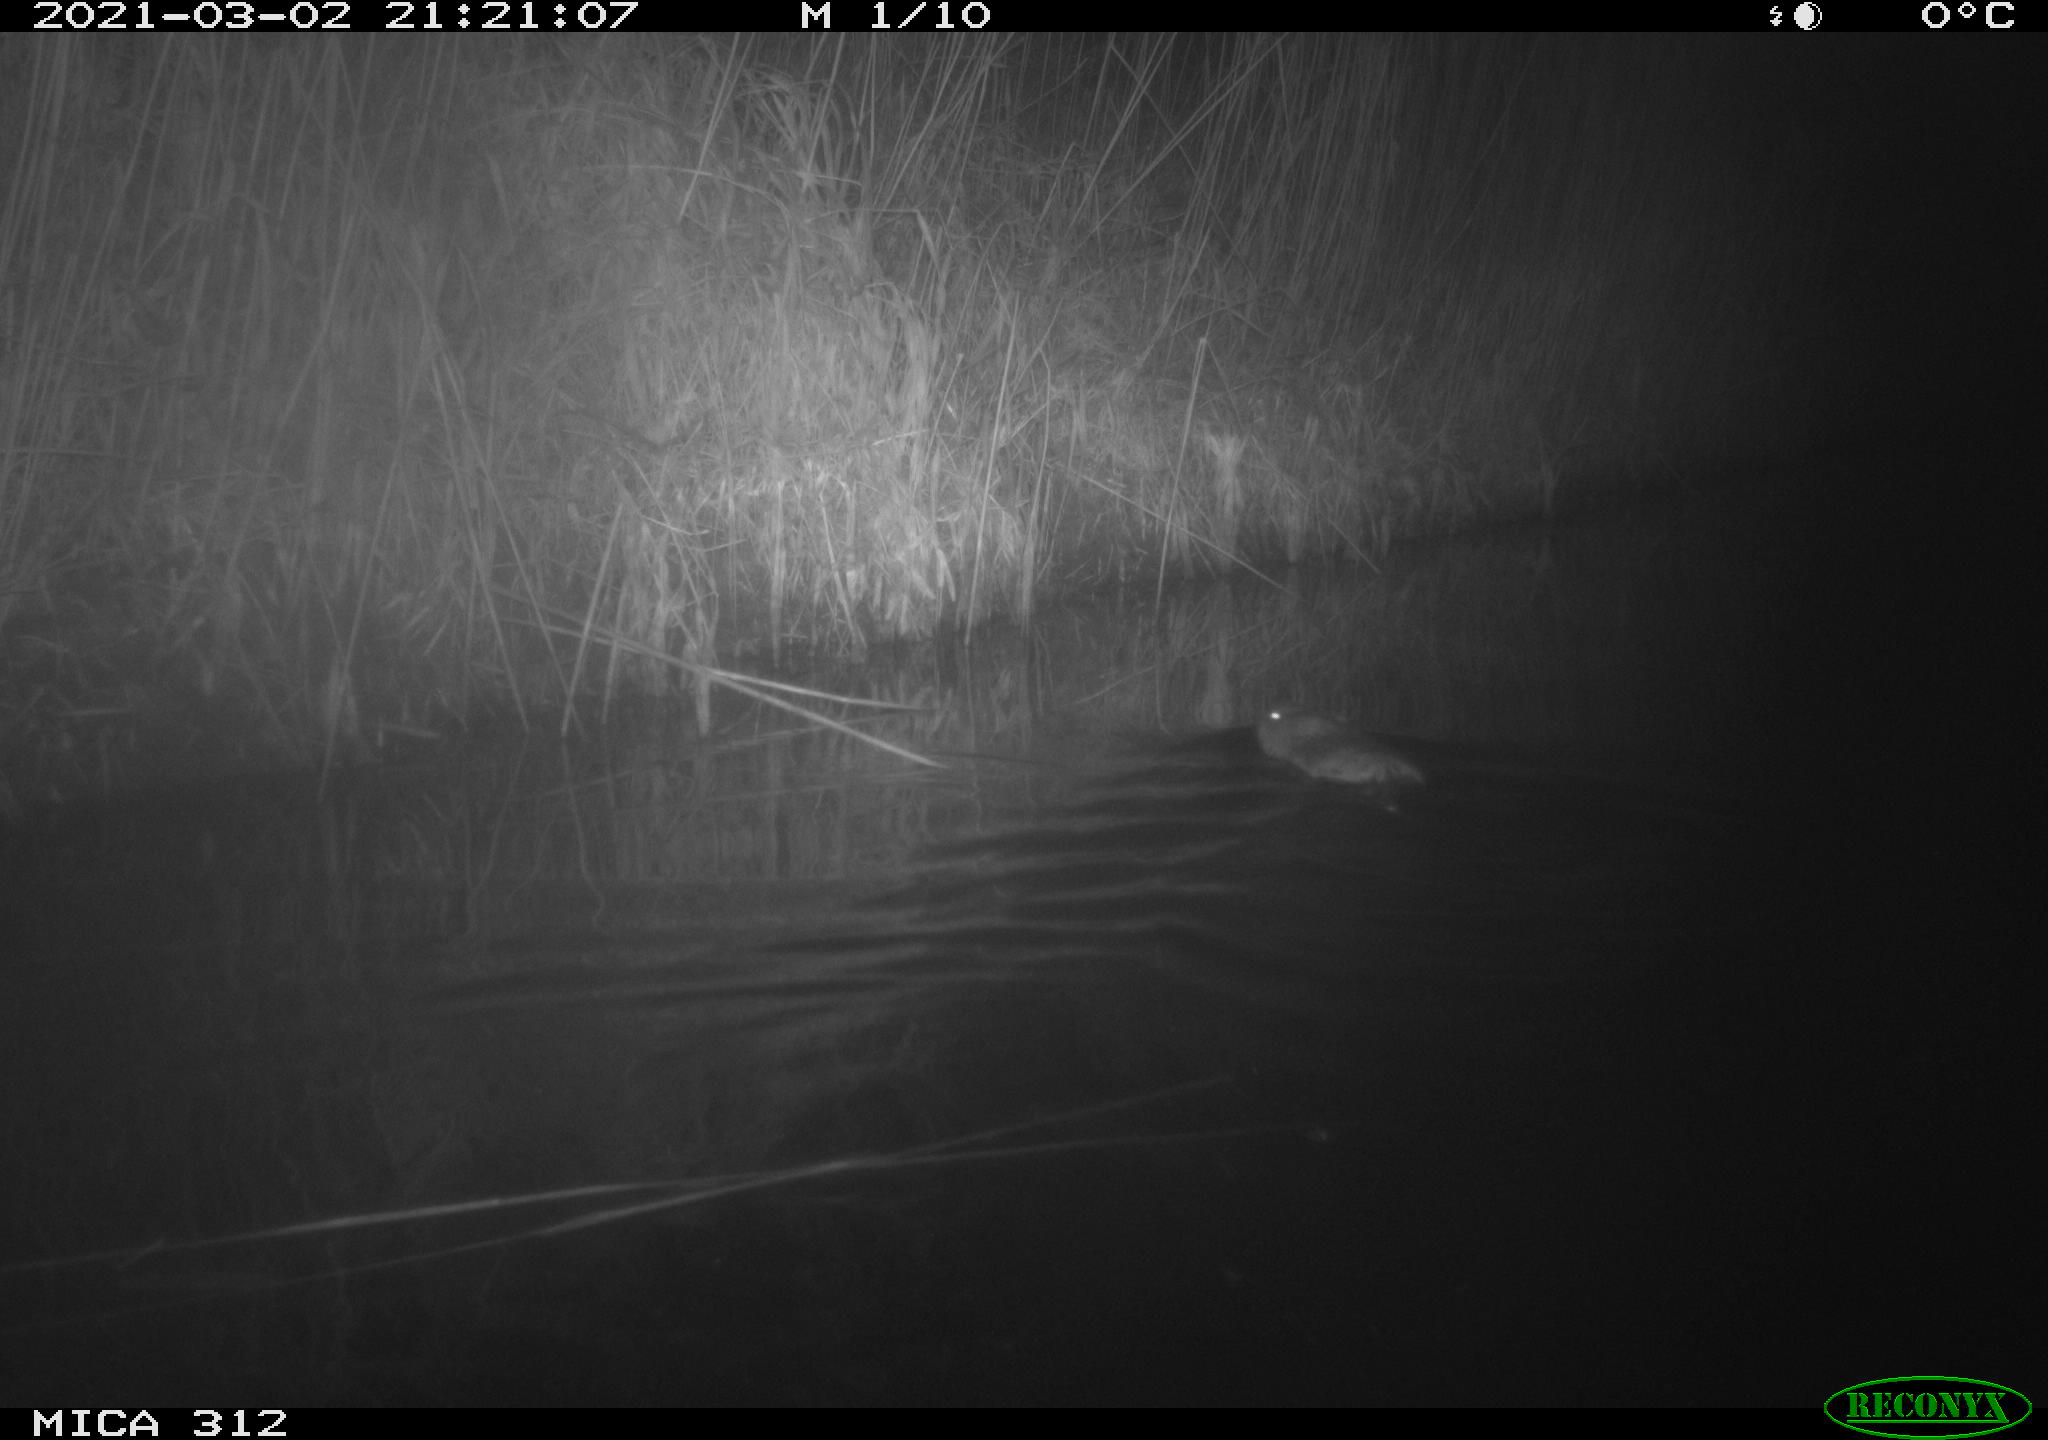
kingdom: Animalia
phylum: Chordata
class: Mammalia
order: Rodentia
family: Cricetidae
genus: Ondatra
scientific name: Ondatra zibethicus
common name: Muskrat
